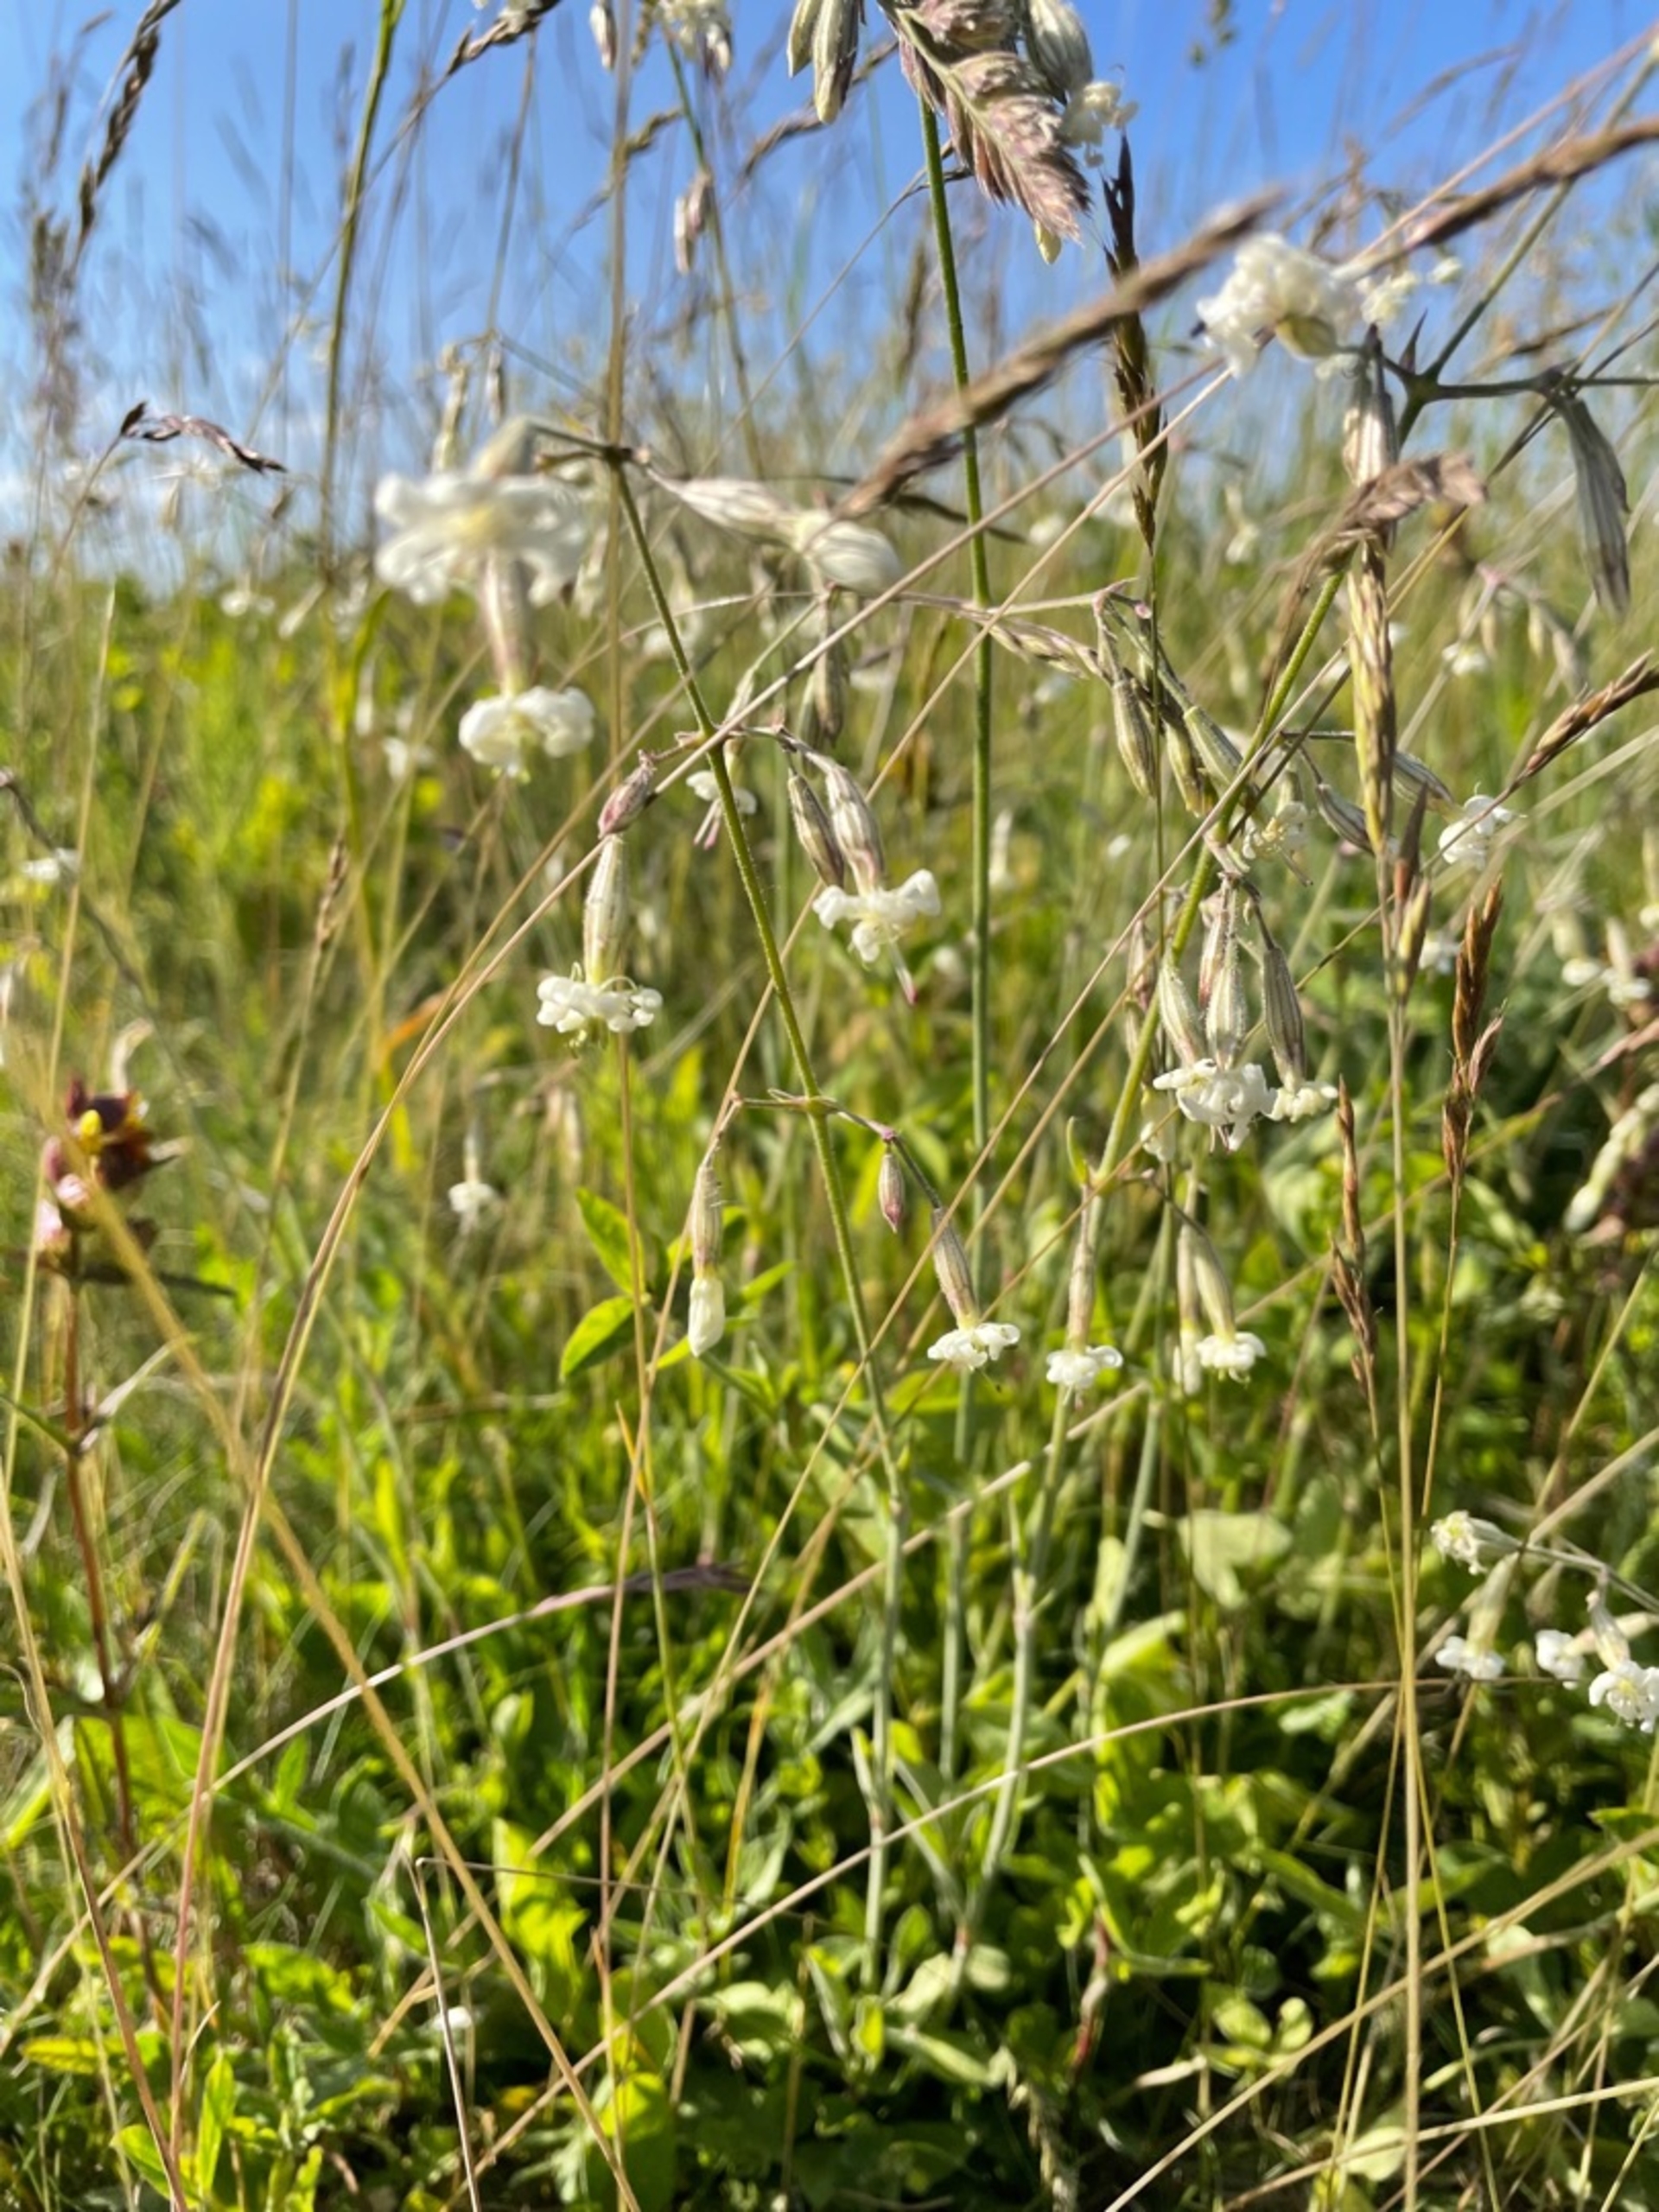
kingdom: Plantae
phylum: Tracheophyta
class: Magnoliopsida
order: Caryophyllales
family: Caryophyllaceae
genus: Silene
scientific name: Silene nutans
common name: Nikkende limurt
